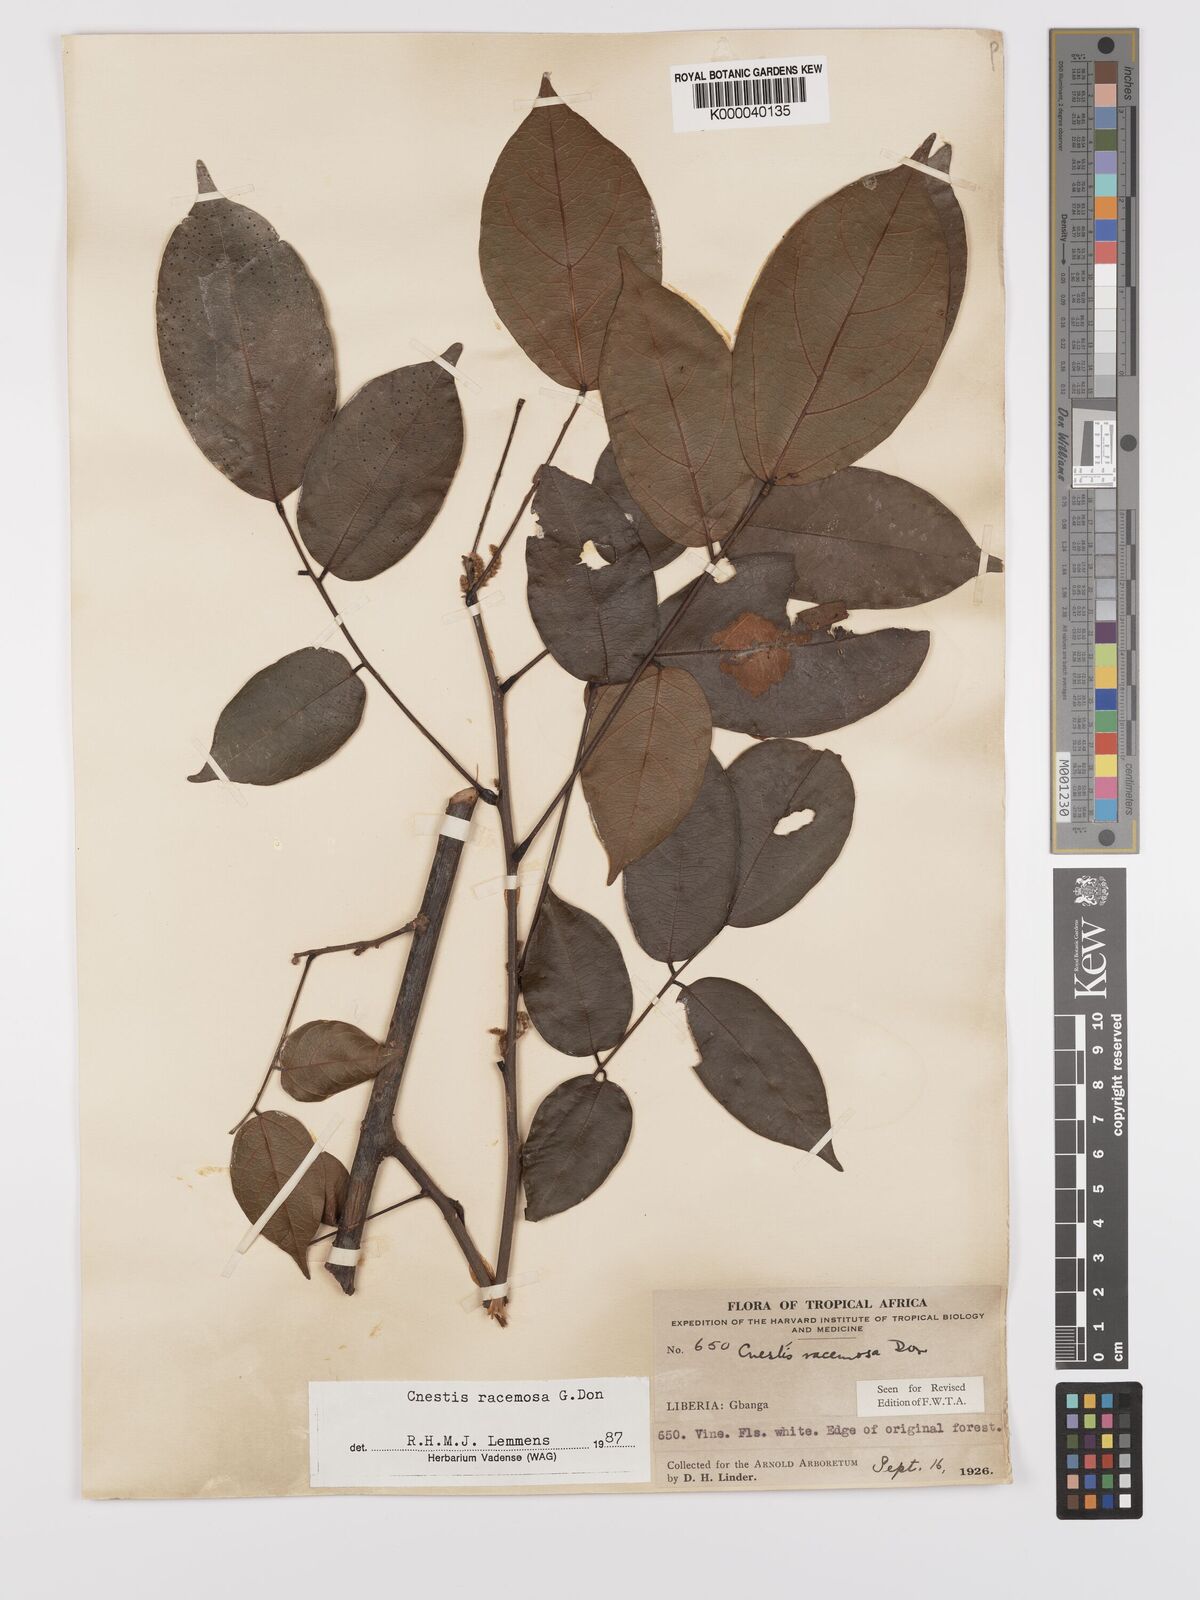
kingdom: Plantae
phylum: Tracheophyta
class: Magnoliopsida
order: Oxalidales
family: Connaraceae
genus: Cnestis
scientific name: Cnestis racemosa
